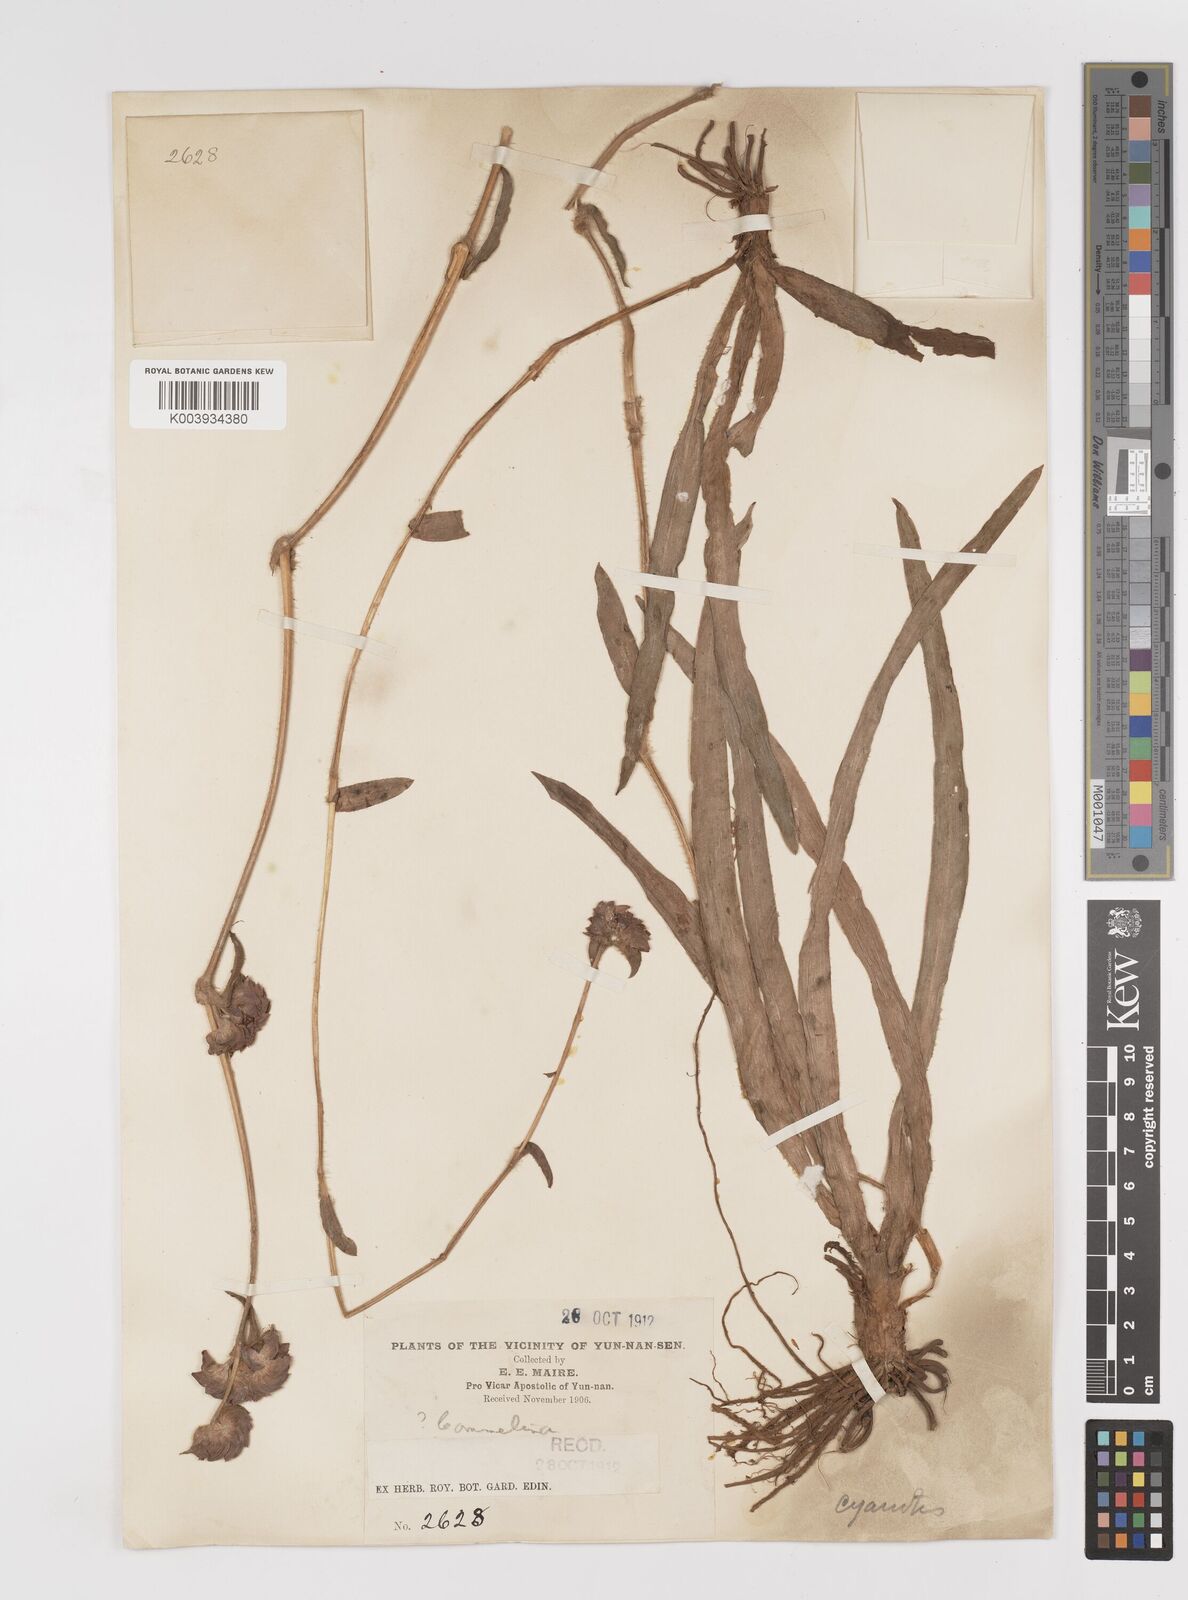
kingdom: Plantae
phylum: Tracheophyta
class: Liliopsida
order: Commelinales
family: Commelinaceae
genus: Cyanotis
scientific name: Cyanotis
